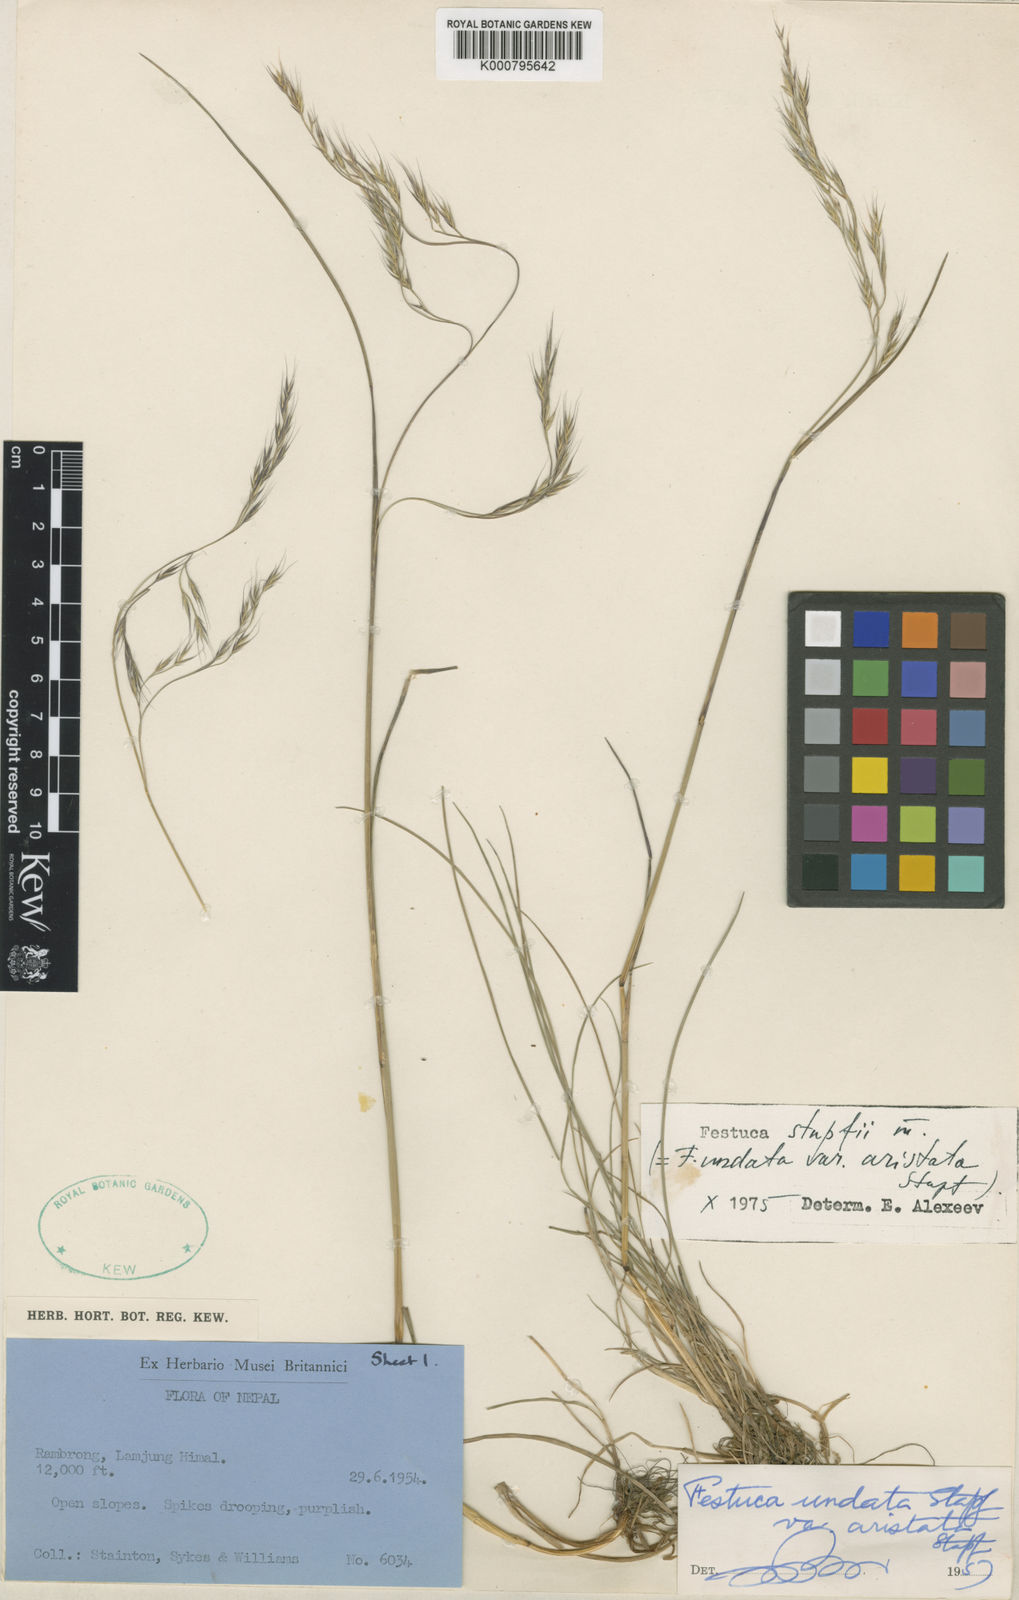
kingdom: Plantae
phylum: Tracheophyta
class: Liliopsida
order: Poales
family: Poaceae
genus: Festuca
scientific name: Festuca undata
